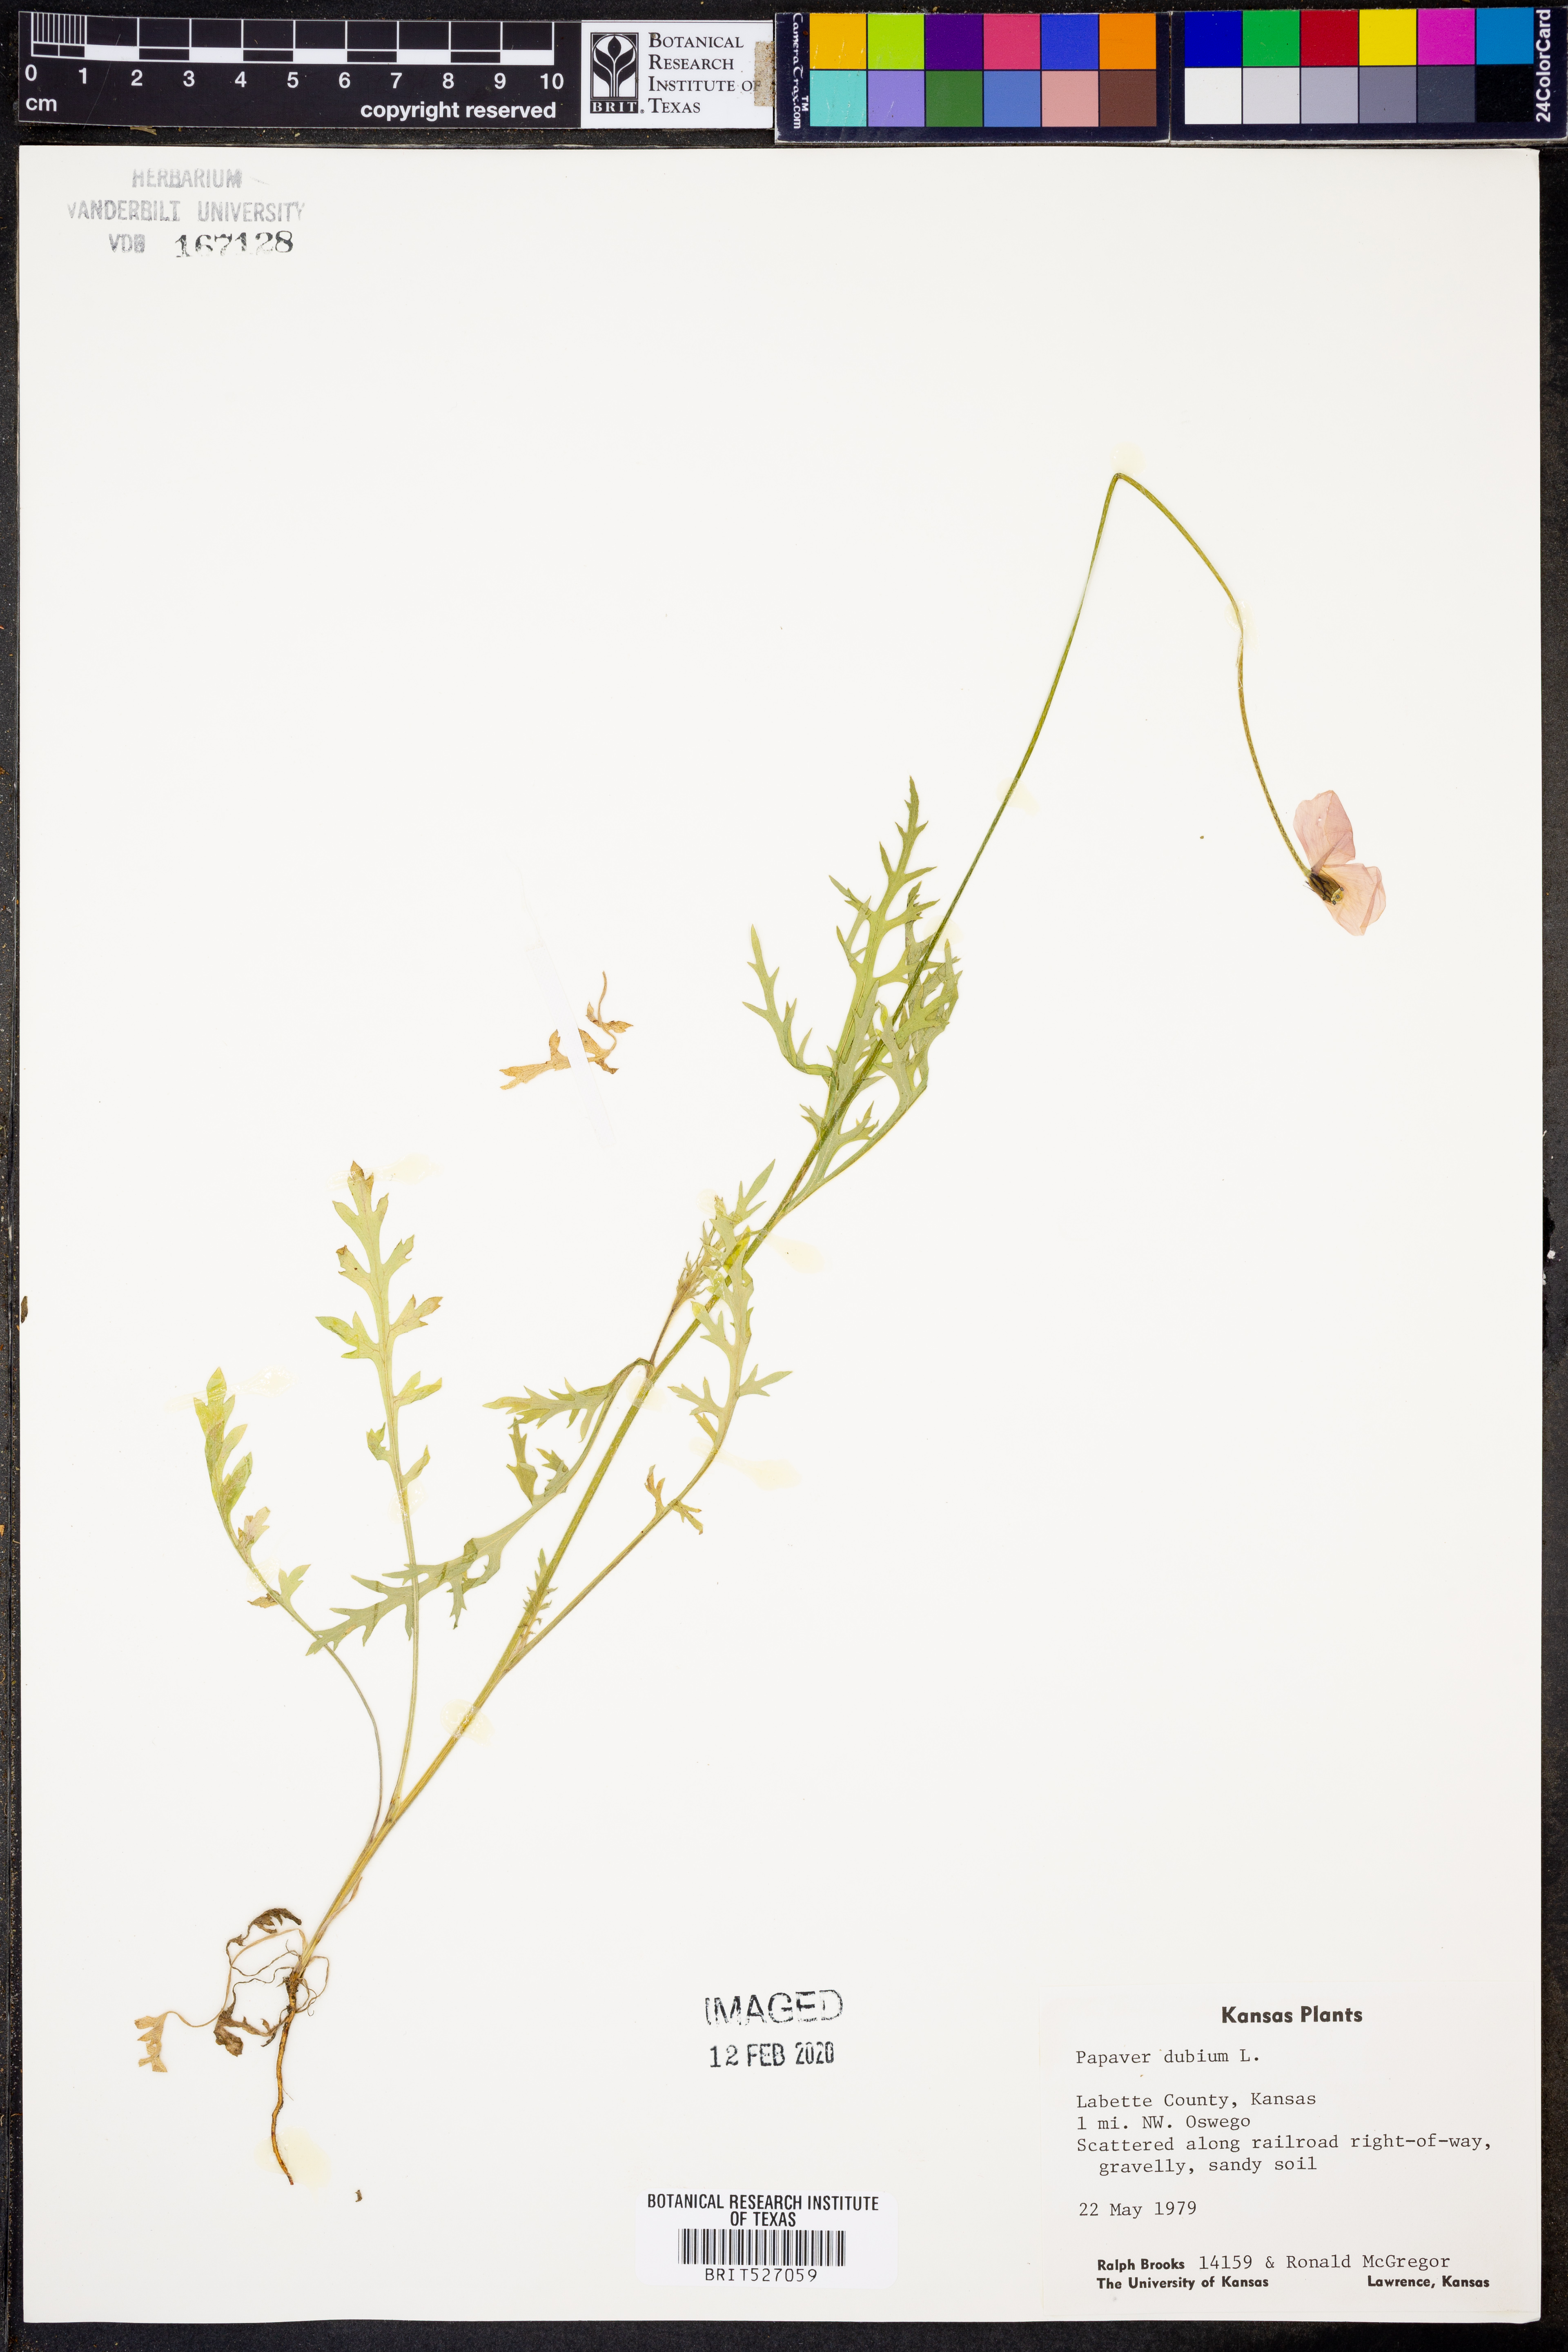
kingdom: Plantae
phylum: Tracheophyta
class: Magnoliopsida
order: Ranunculales
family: Papaveraceae
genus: Papaver
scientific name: Papaver dubium
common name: Long-headed poppy
